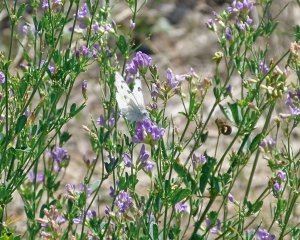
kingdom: Animalia
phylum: Arthropoda
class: Insecta
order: Lepidoptera
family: Pieridae
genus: Pontia
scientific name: Pontia occidentalis
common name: Western White
